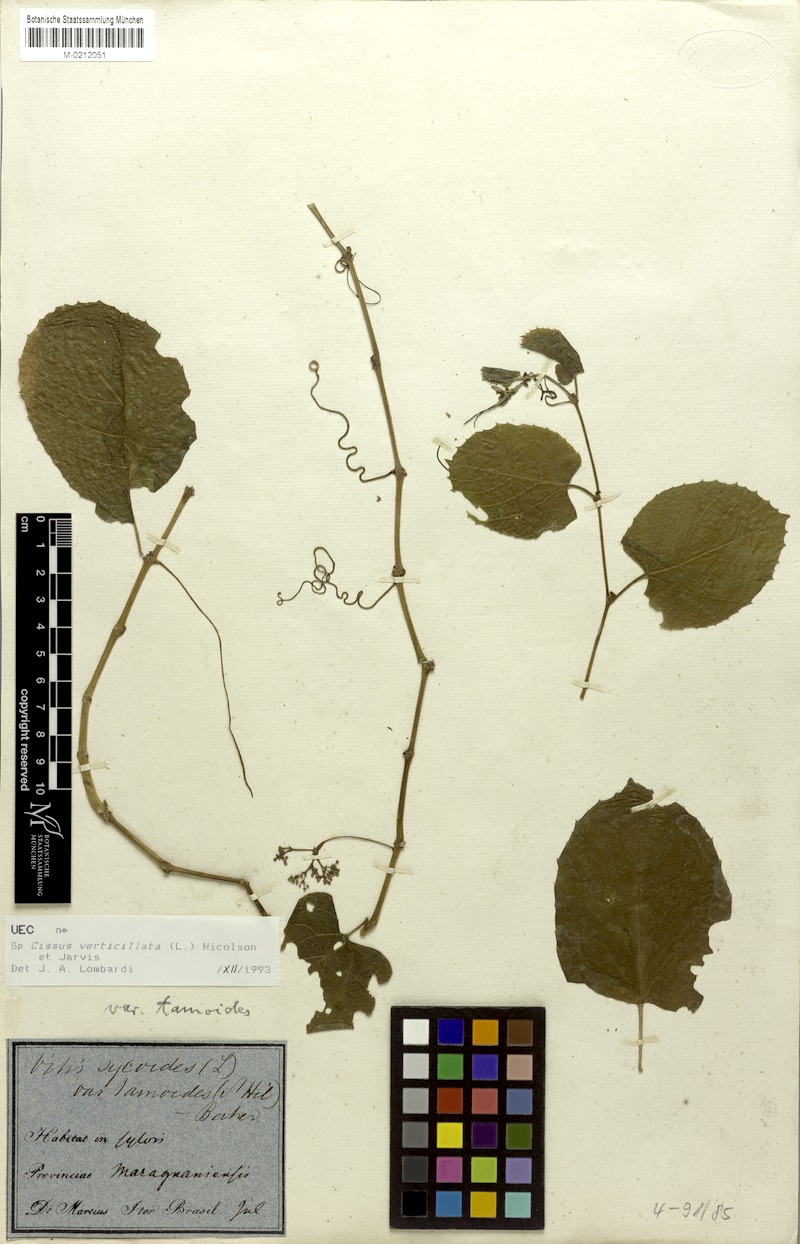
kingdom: Plantae
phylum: Tracheophyta
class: Magnoliopsida
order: Vitales
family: Vitaceae
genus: Cissus
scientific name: Cissus verticillata
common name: Princess vine
